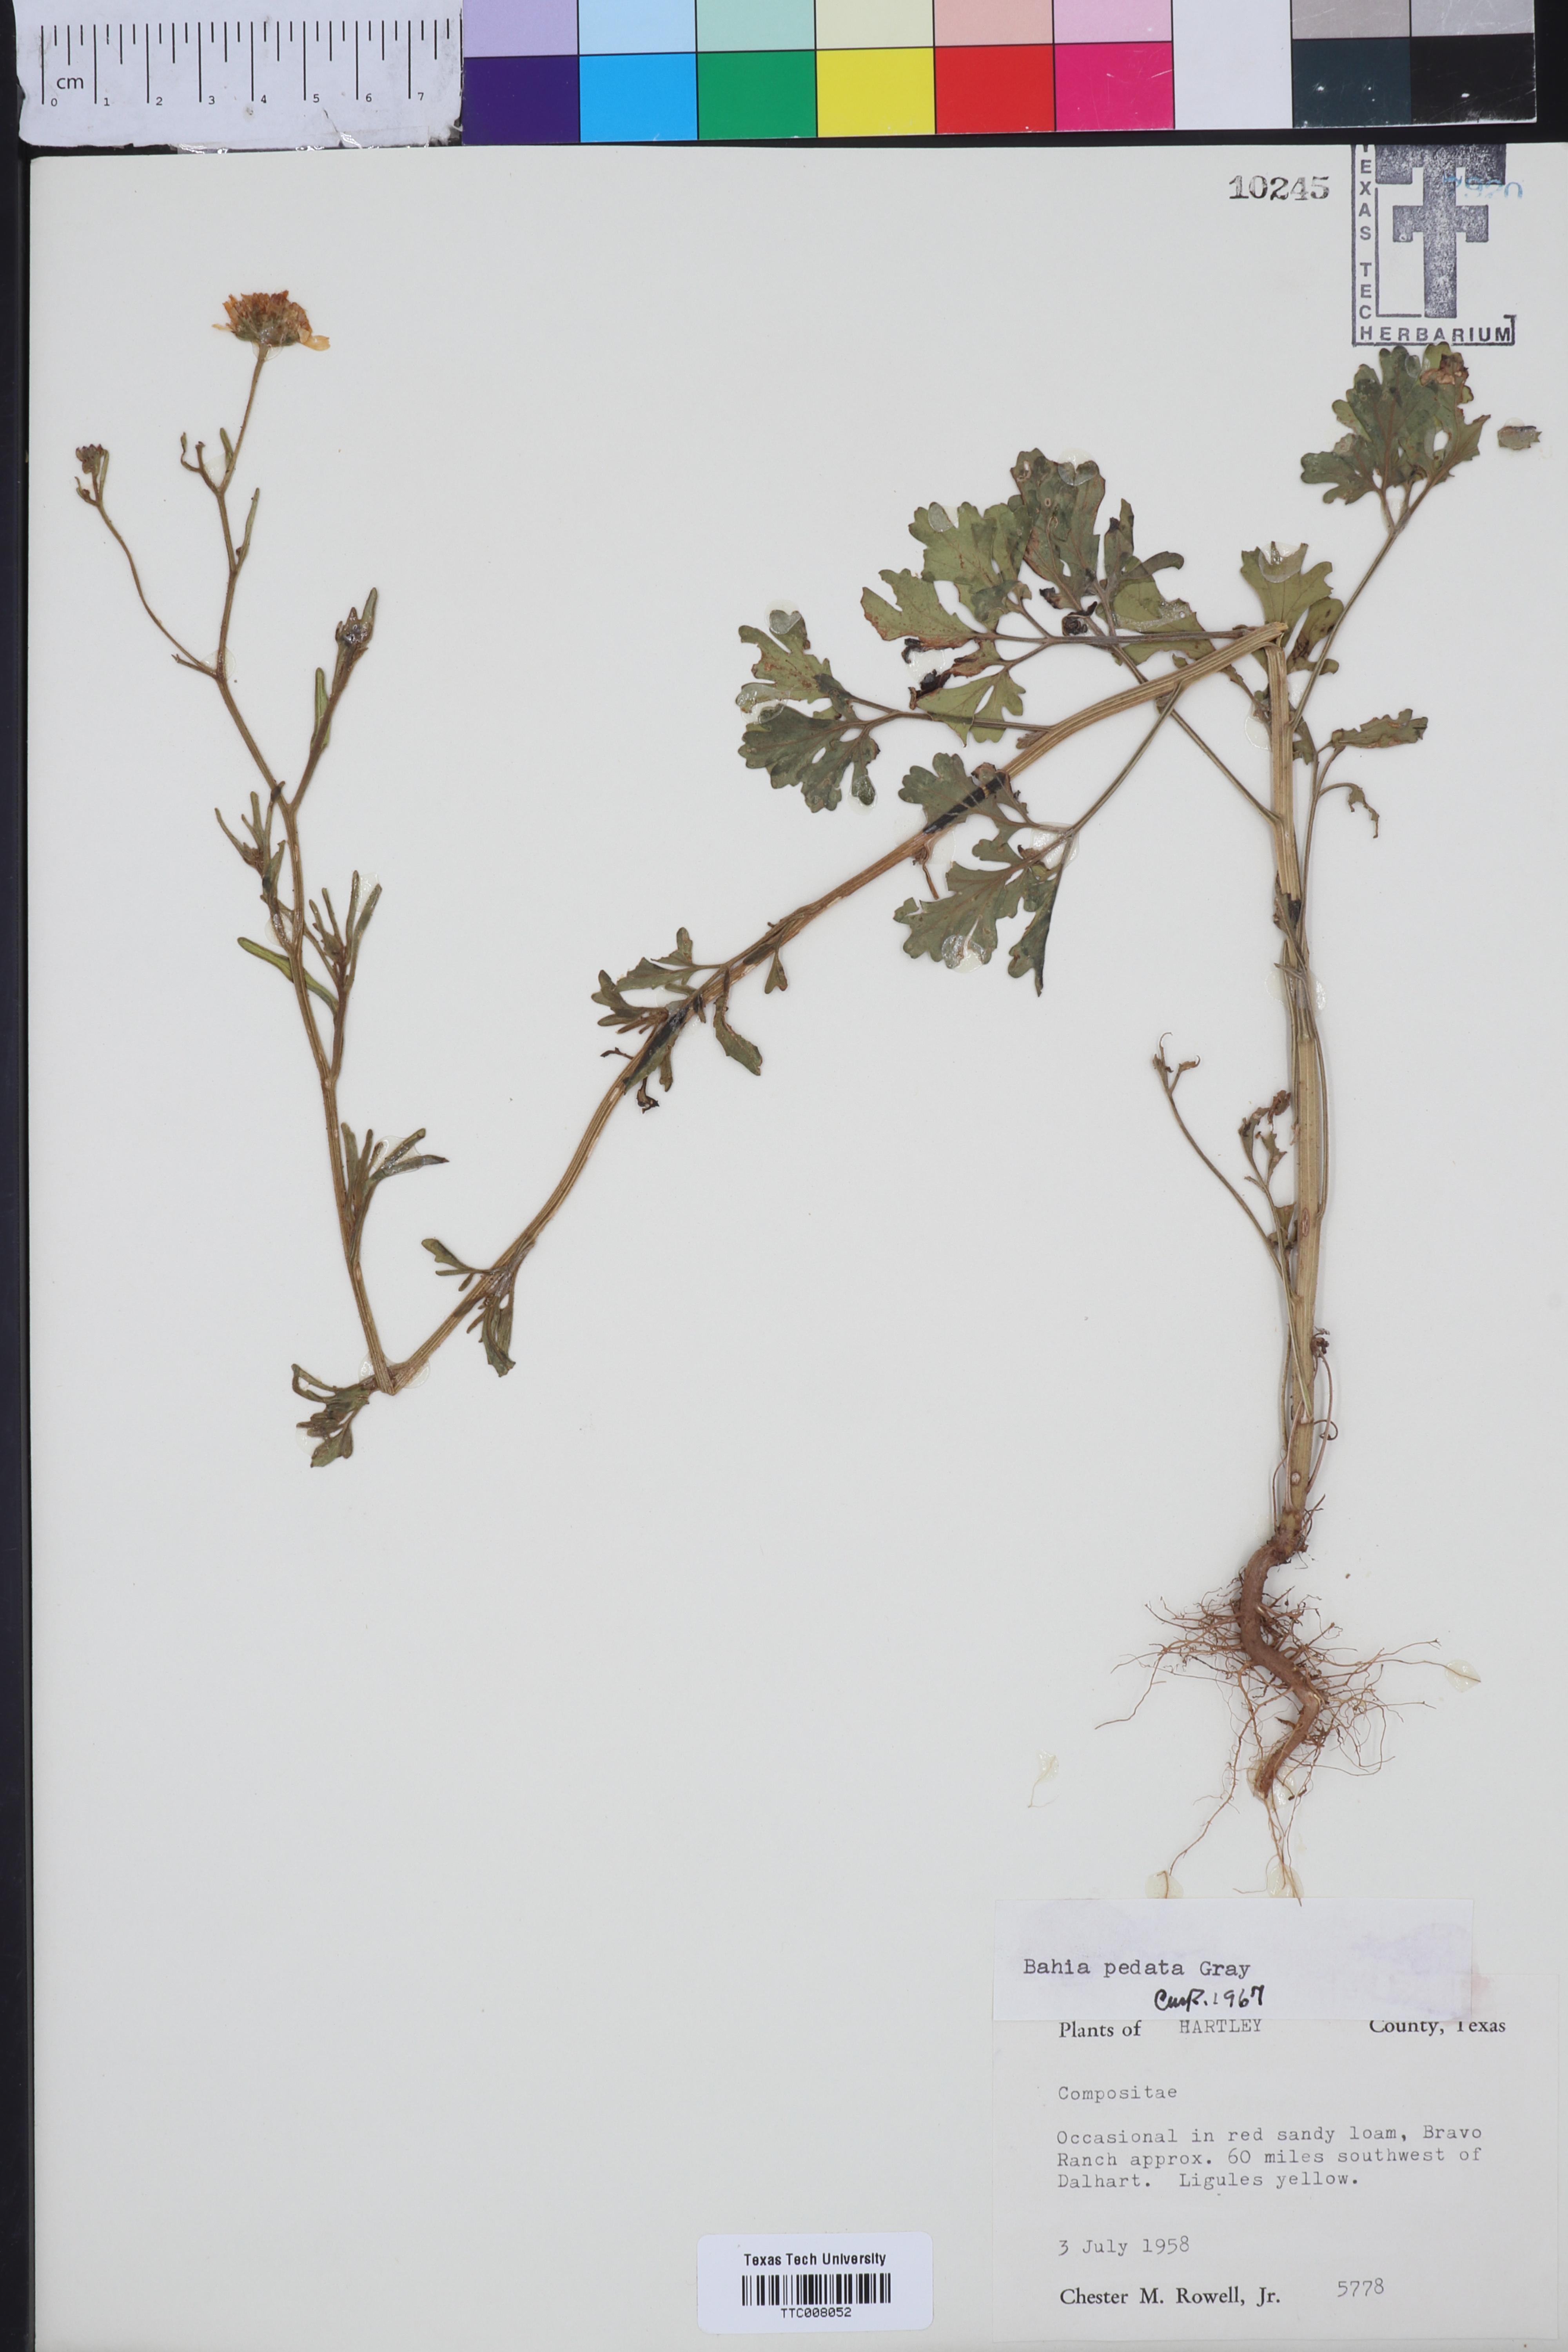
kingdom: Plantae
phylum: Tracheophyta
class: Magnoliopsida
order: Asterales
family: Asteraceae
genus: Hymenothrix
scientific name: Hymenothrix pedata
